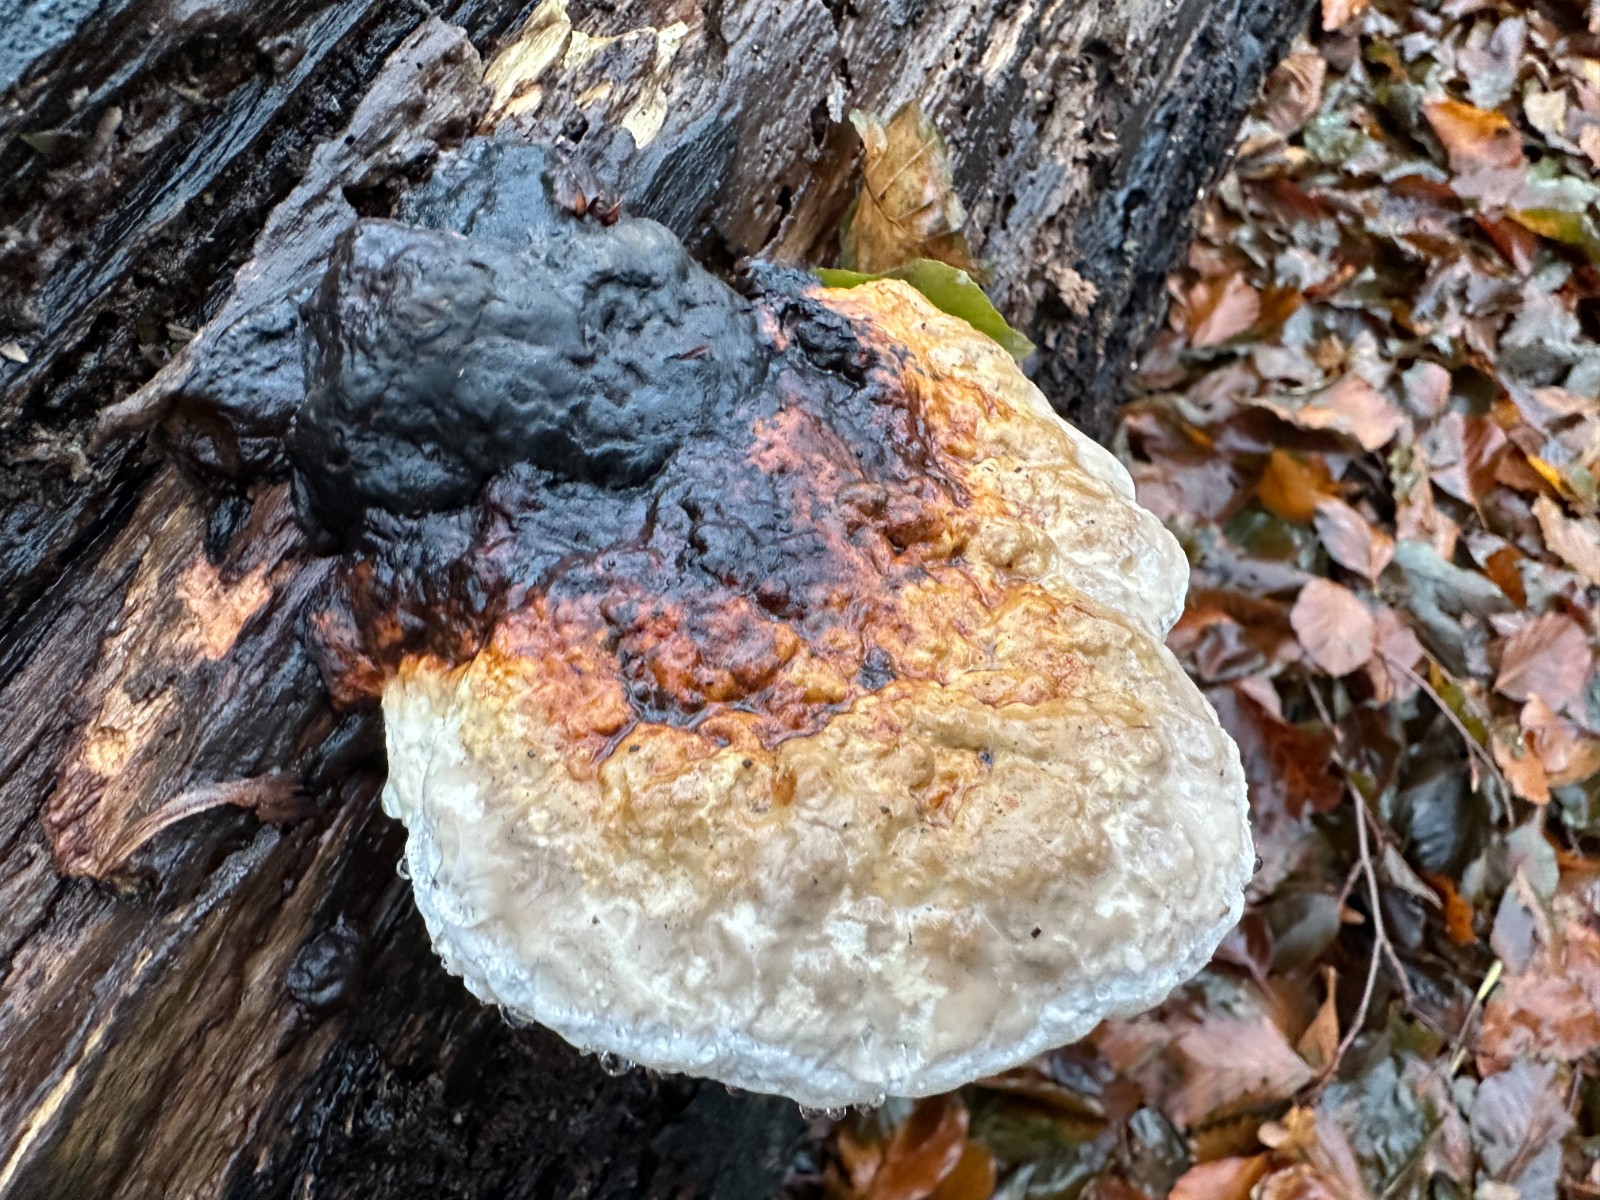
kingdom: Fungi
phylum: Basidiomycota
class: Agaricomycetes
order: Polyporales
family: Fomitopsidaceae
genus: Fomitopsis
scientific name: Fomitopsis pinicola
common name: randbæltet hovporesvamp
